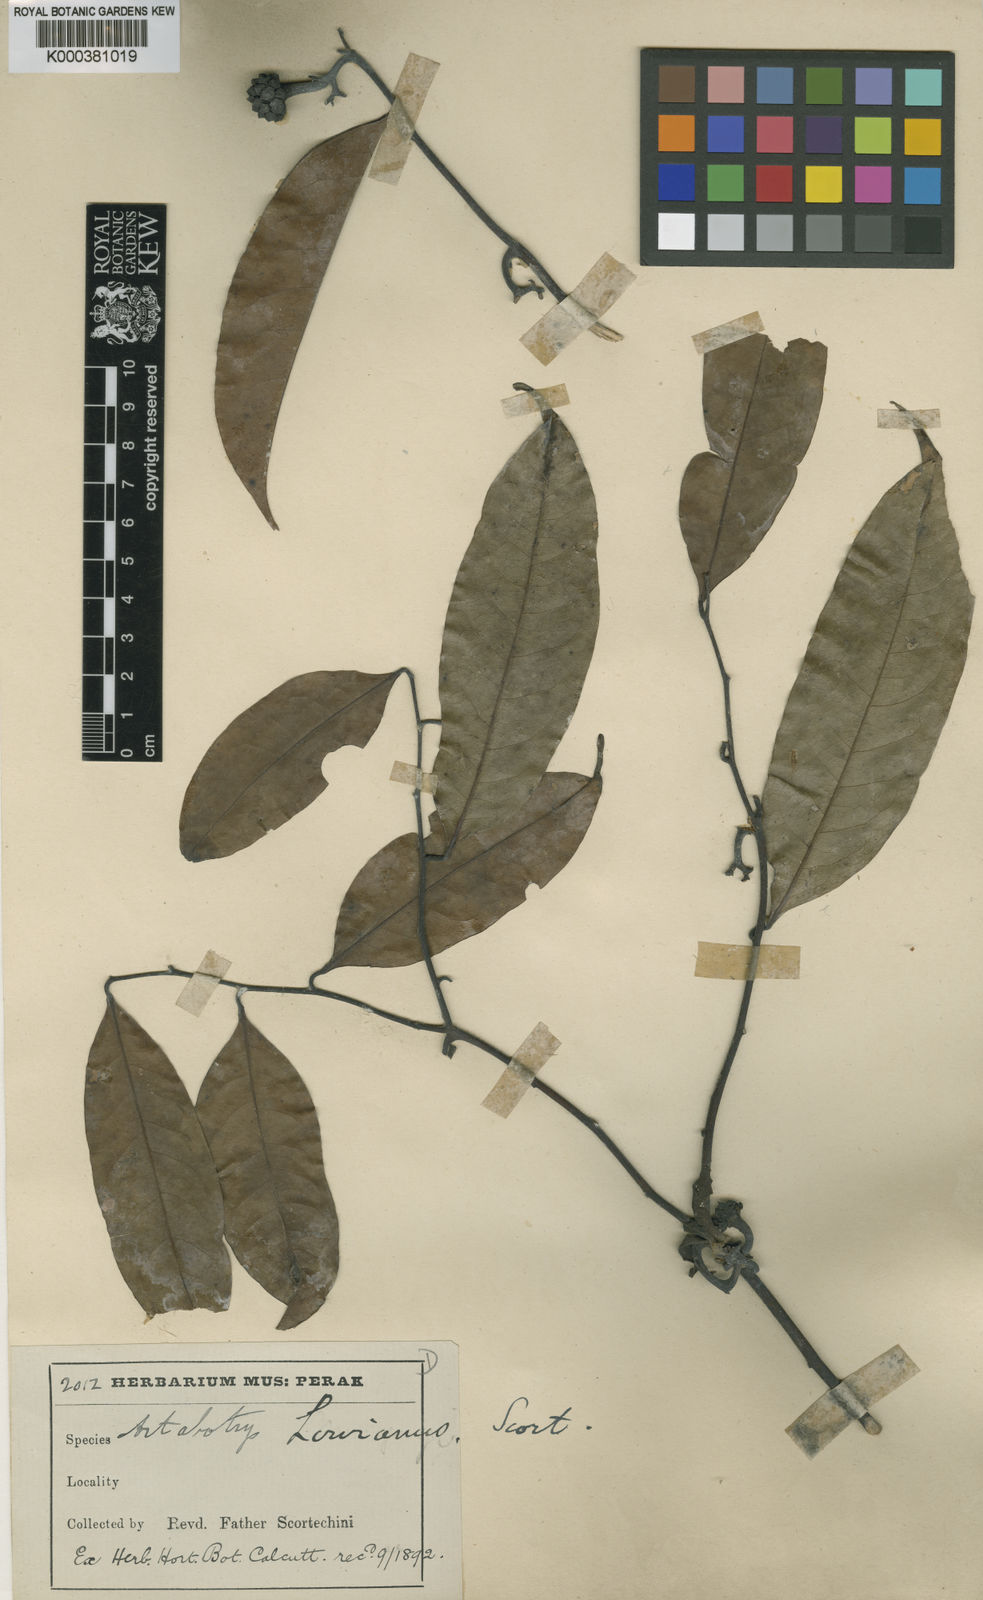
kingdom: Plantae
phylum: Tracheophyta
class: Magnoliopsida
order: Magnoliales
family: Annonaceae
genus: Artabotrys
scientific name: Artabotrys lowianus
